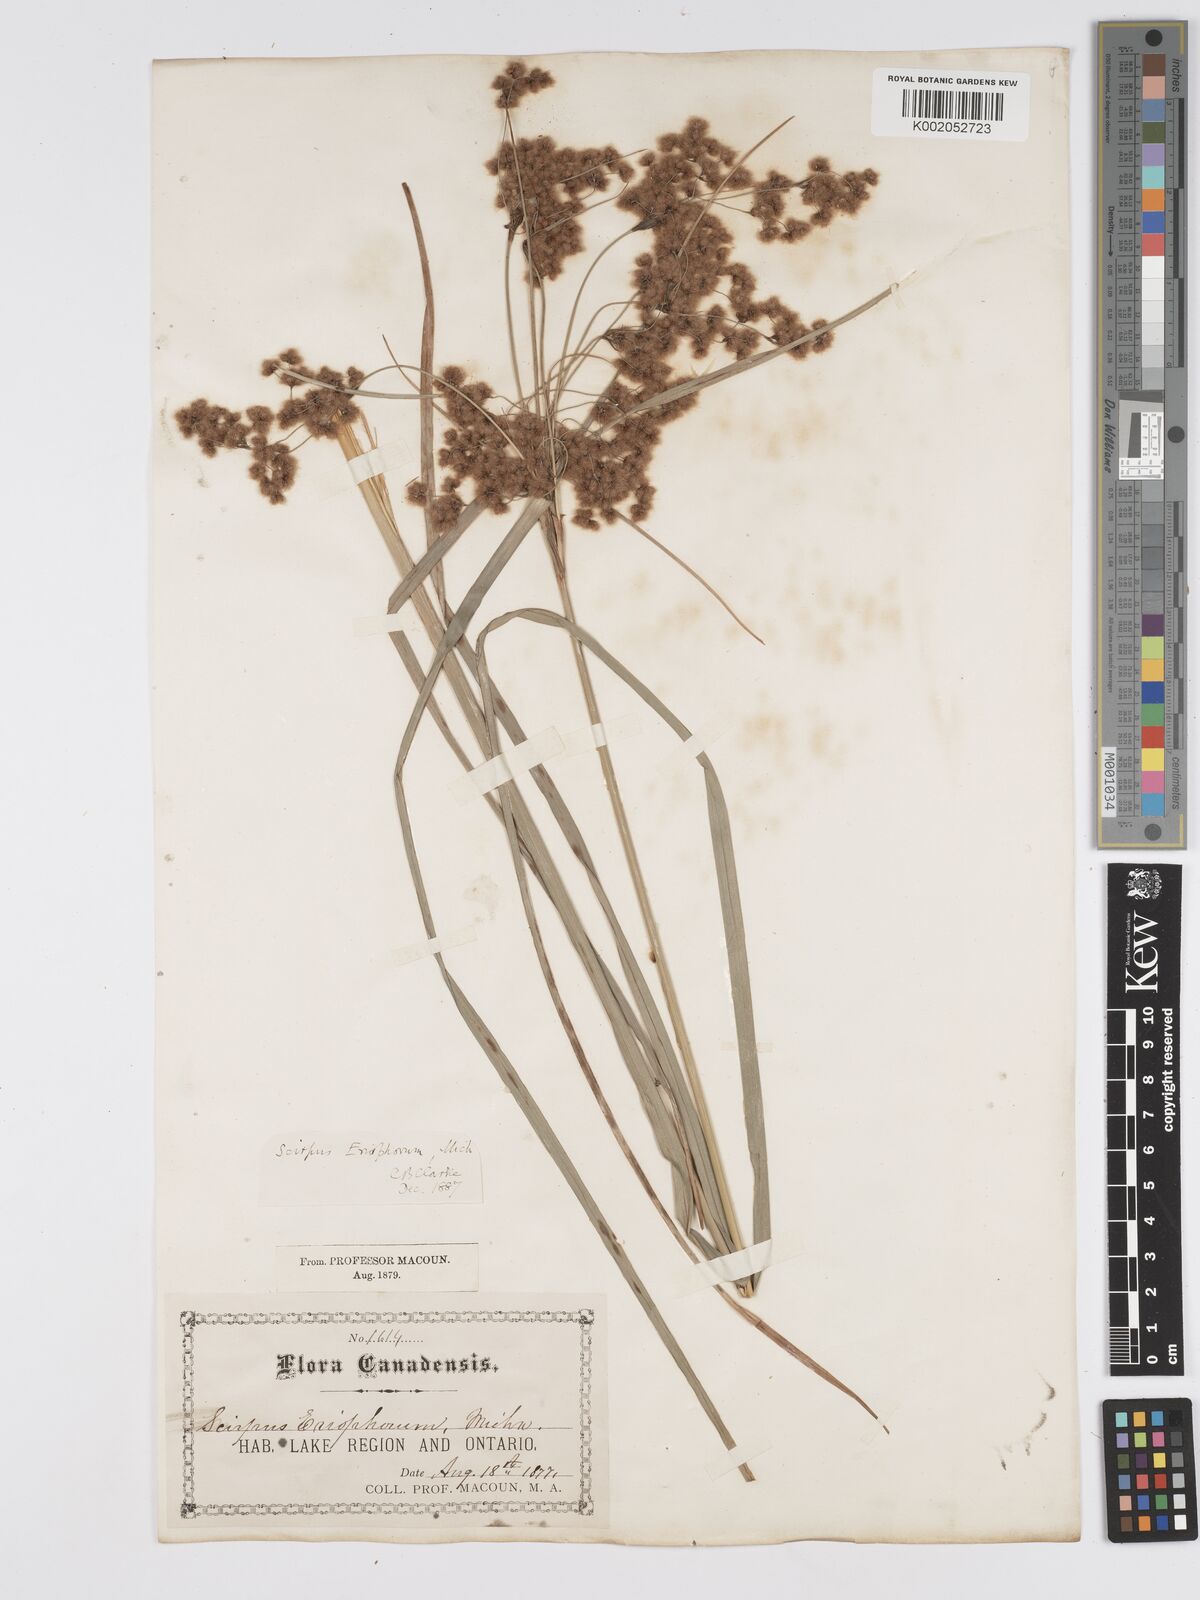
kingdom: Plantae
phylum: Tracheophyta
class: Liliopsida
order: Poales
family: Cyperaceae
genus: Scirpus
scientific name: Scirpus cyperinus
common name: Black-sheathed bulrush
